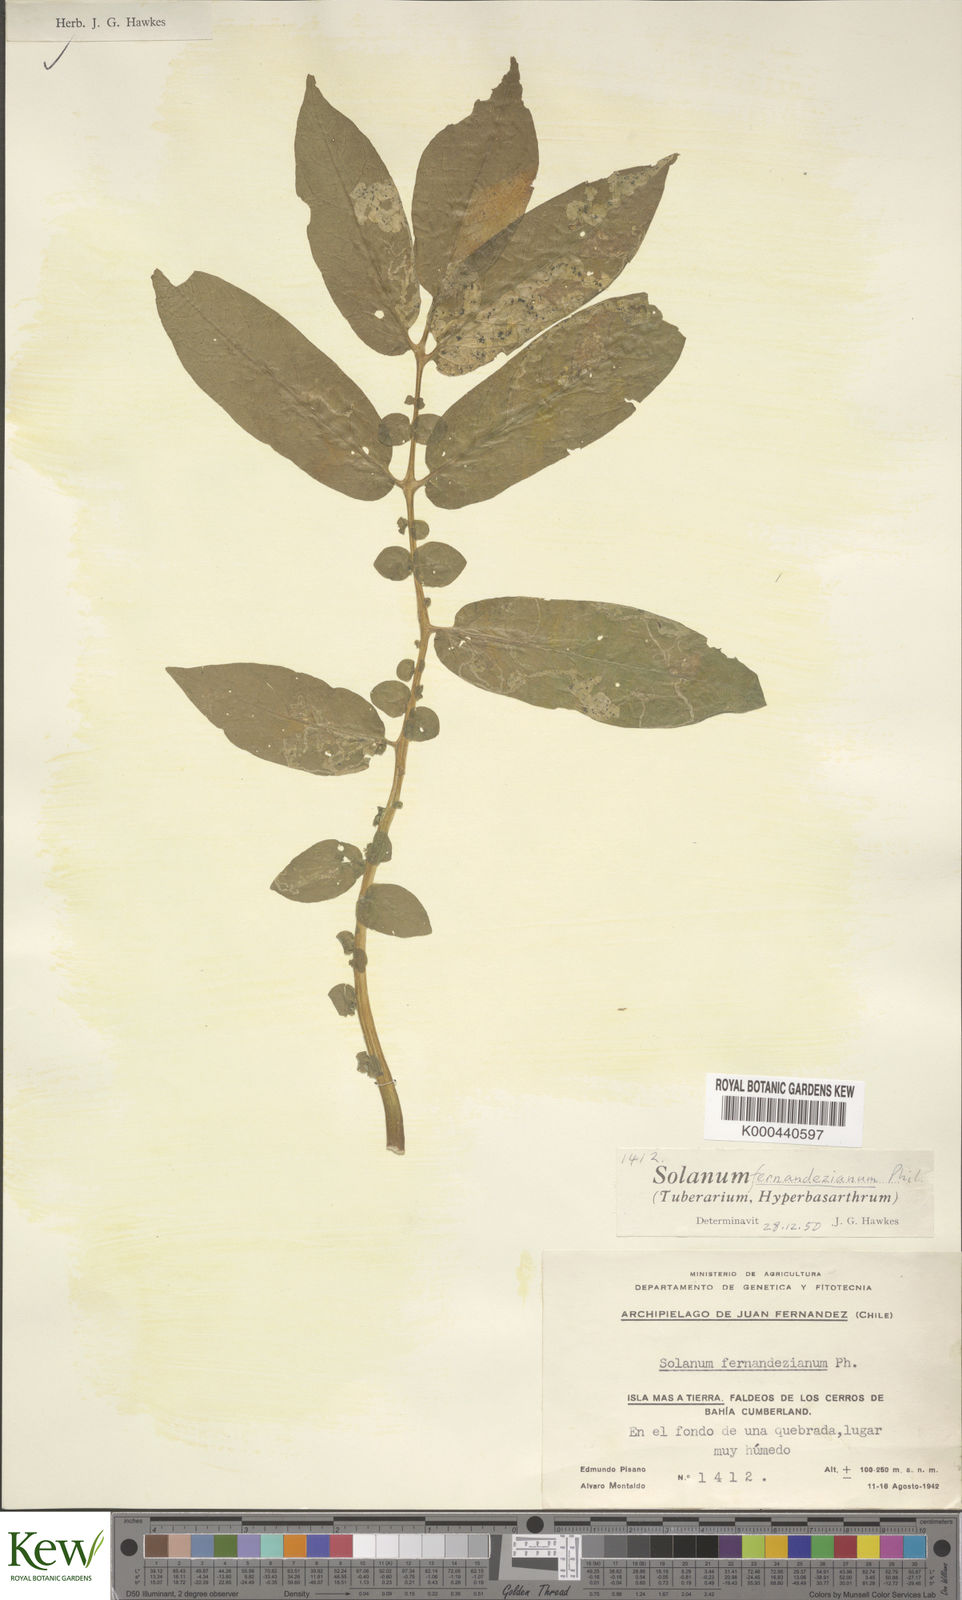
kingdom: Plantae
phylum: Tracheophyta
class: Magnoliopsida
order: Solanales
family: Solanaceae
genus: Solanum
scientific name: Solanum fernandezianum
